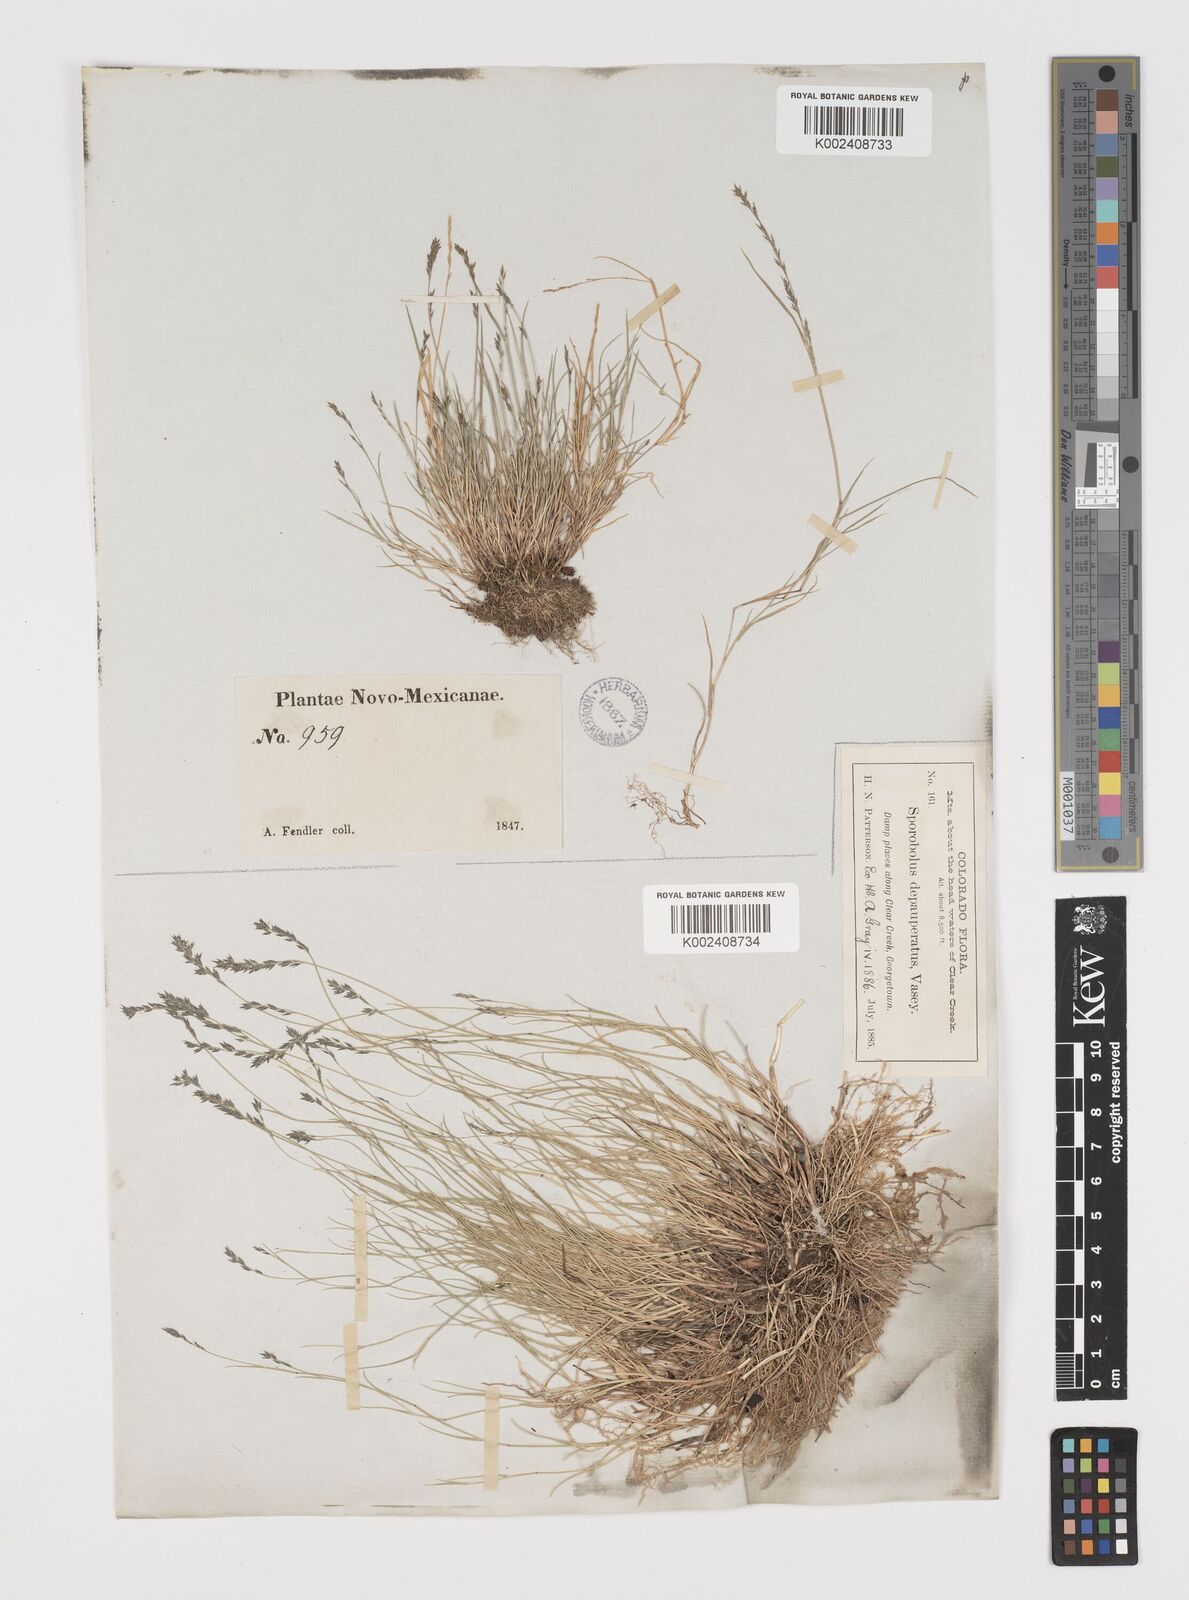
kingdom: Plantae
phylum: Tracheophyta
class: Liliopsida
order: Poales
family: Poaceae
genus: Muhlenbergia
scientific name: Muhlenbergia richardsonis
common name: Mat muhly
